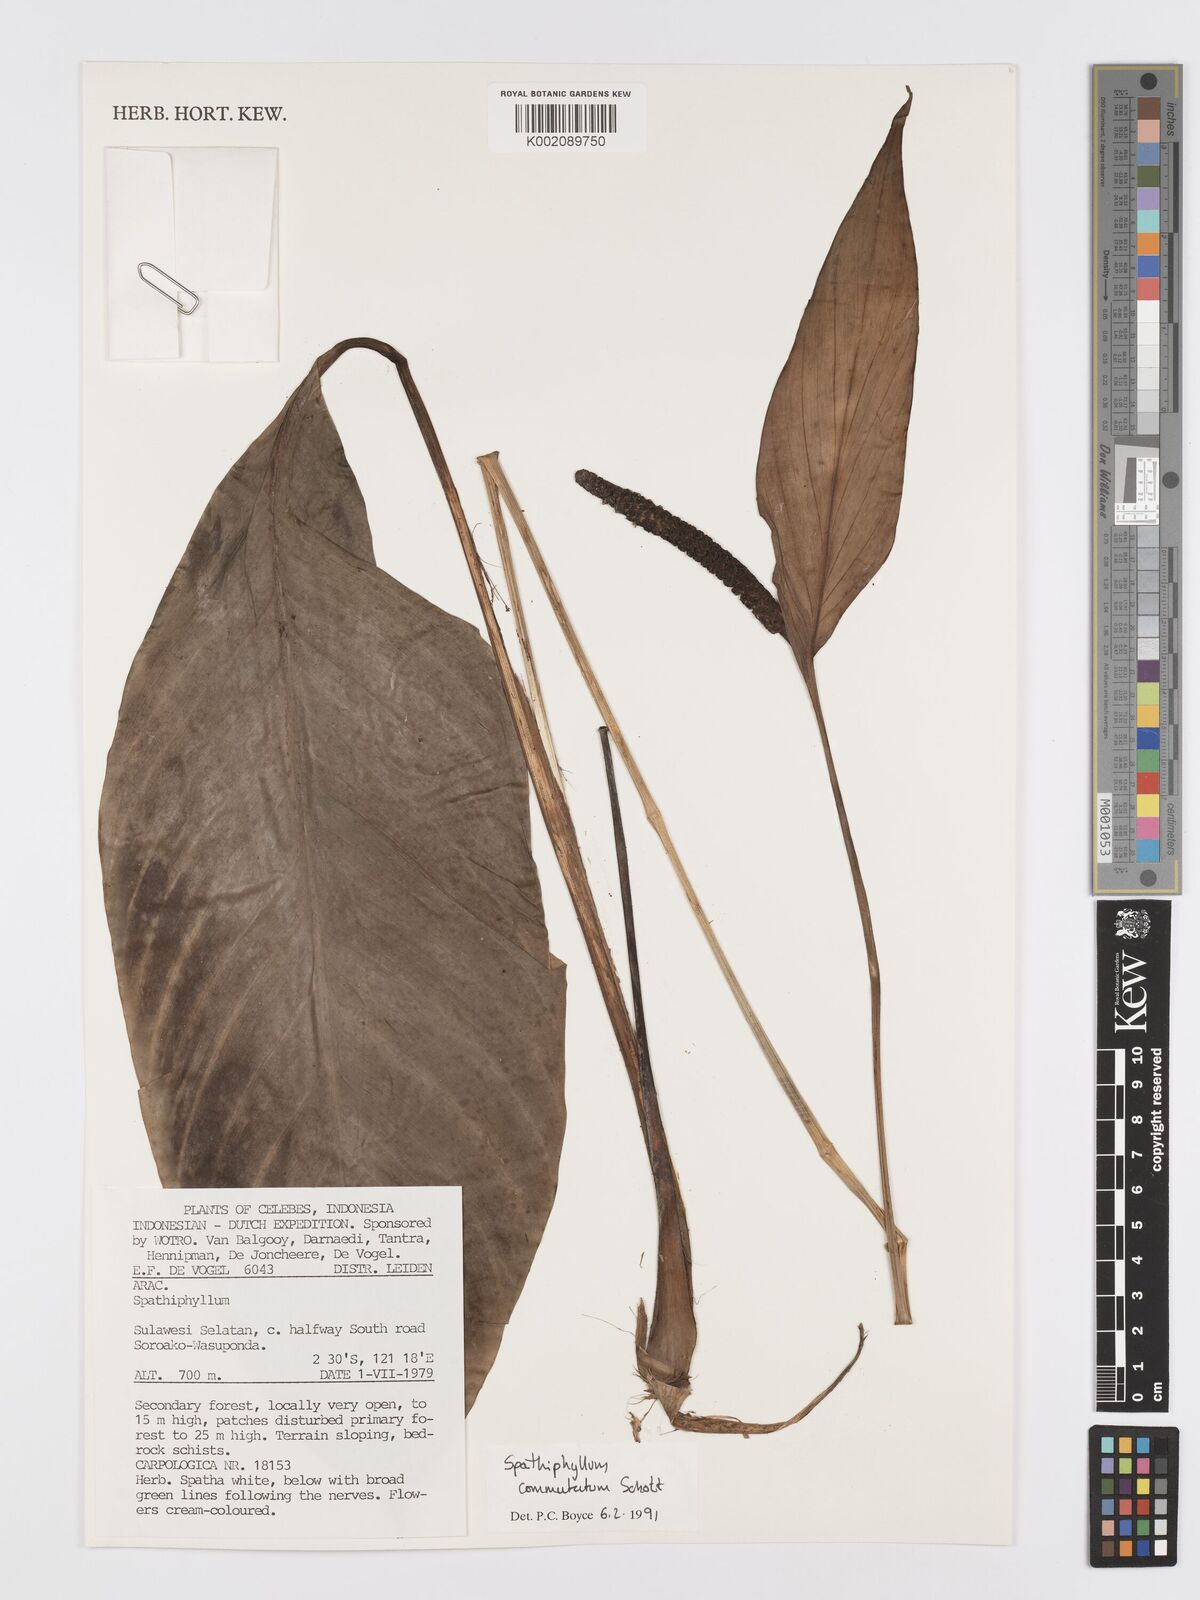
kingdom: Plantae
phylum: Tracheophyta
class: Liliopsida
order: Alismatales
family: Araceae
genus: Spathiphyllum
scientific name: Spathiphyllum commutatum
